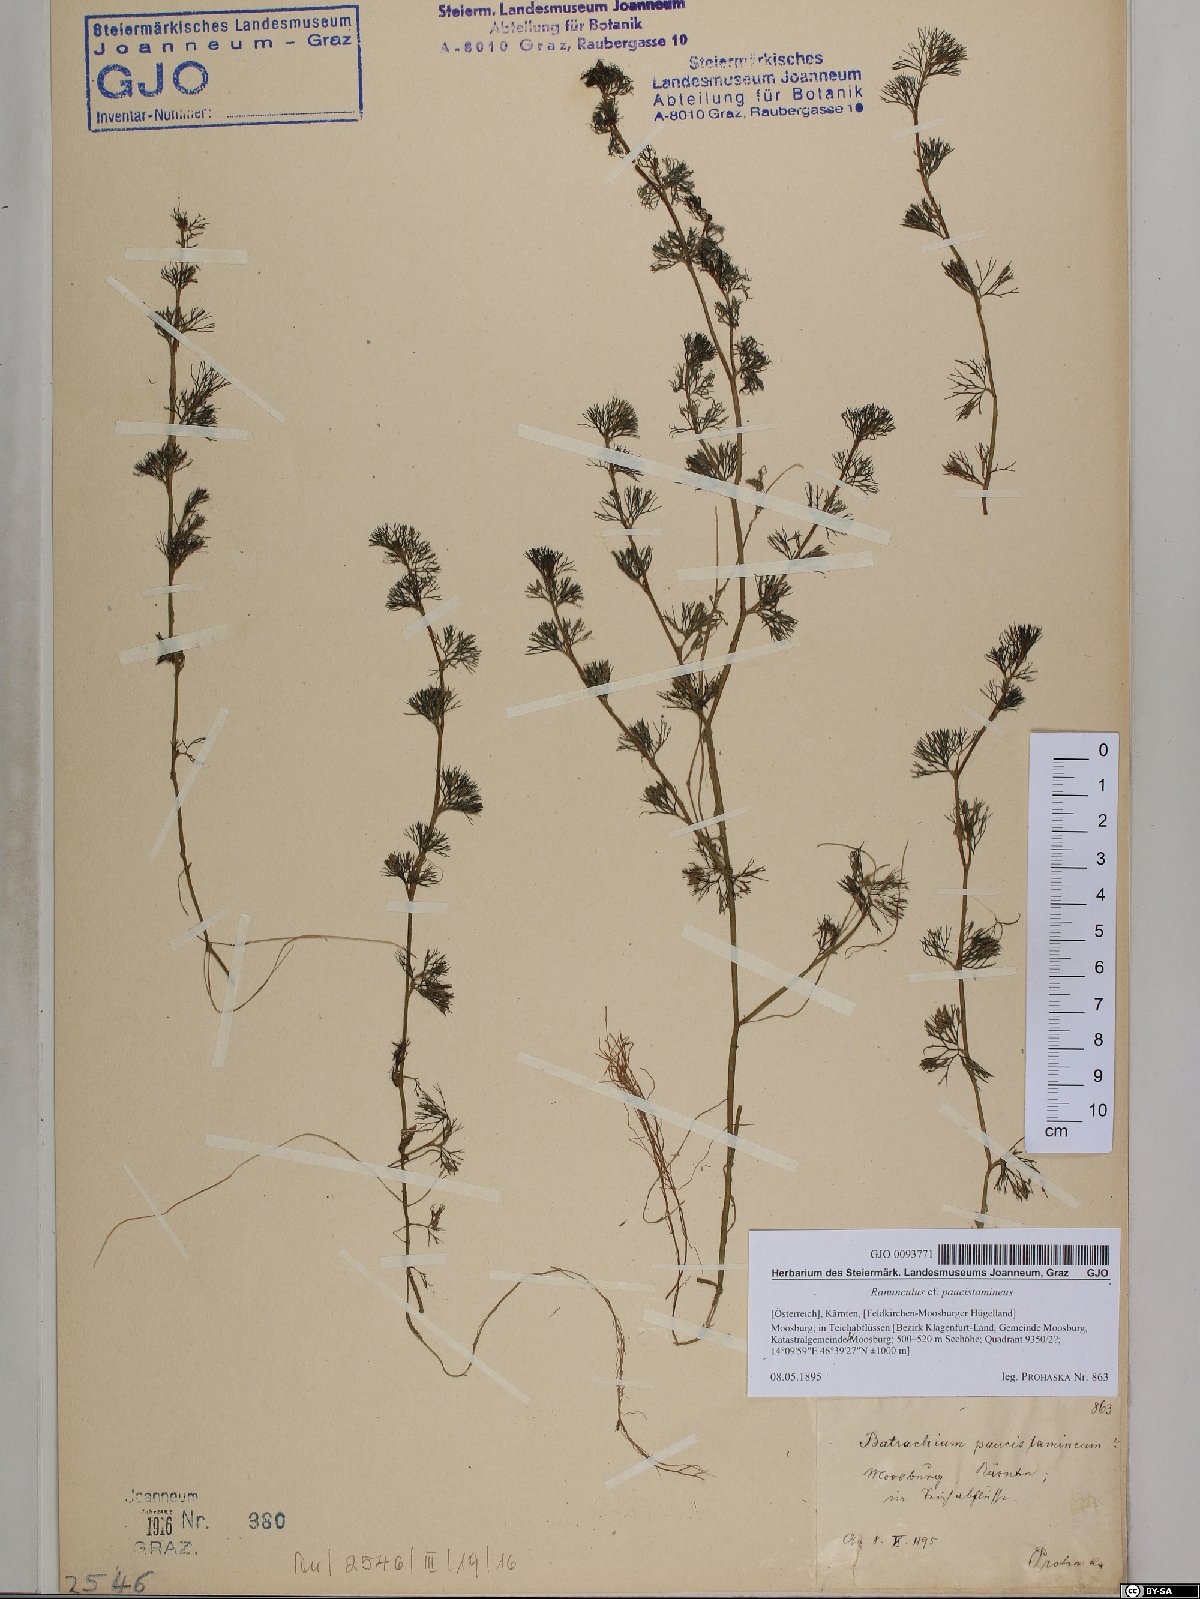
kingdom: Plantae
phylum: Tracheophyta
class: Magnoliopsida
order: Ranunculales
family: Ranunculaceae
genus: Ranunculus
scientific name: Ranunculus
